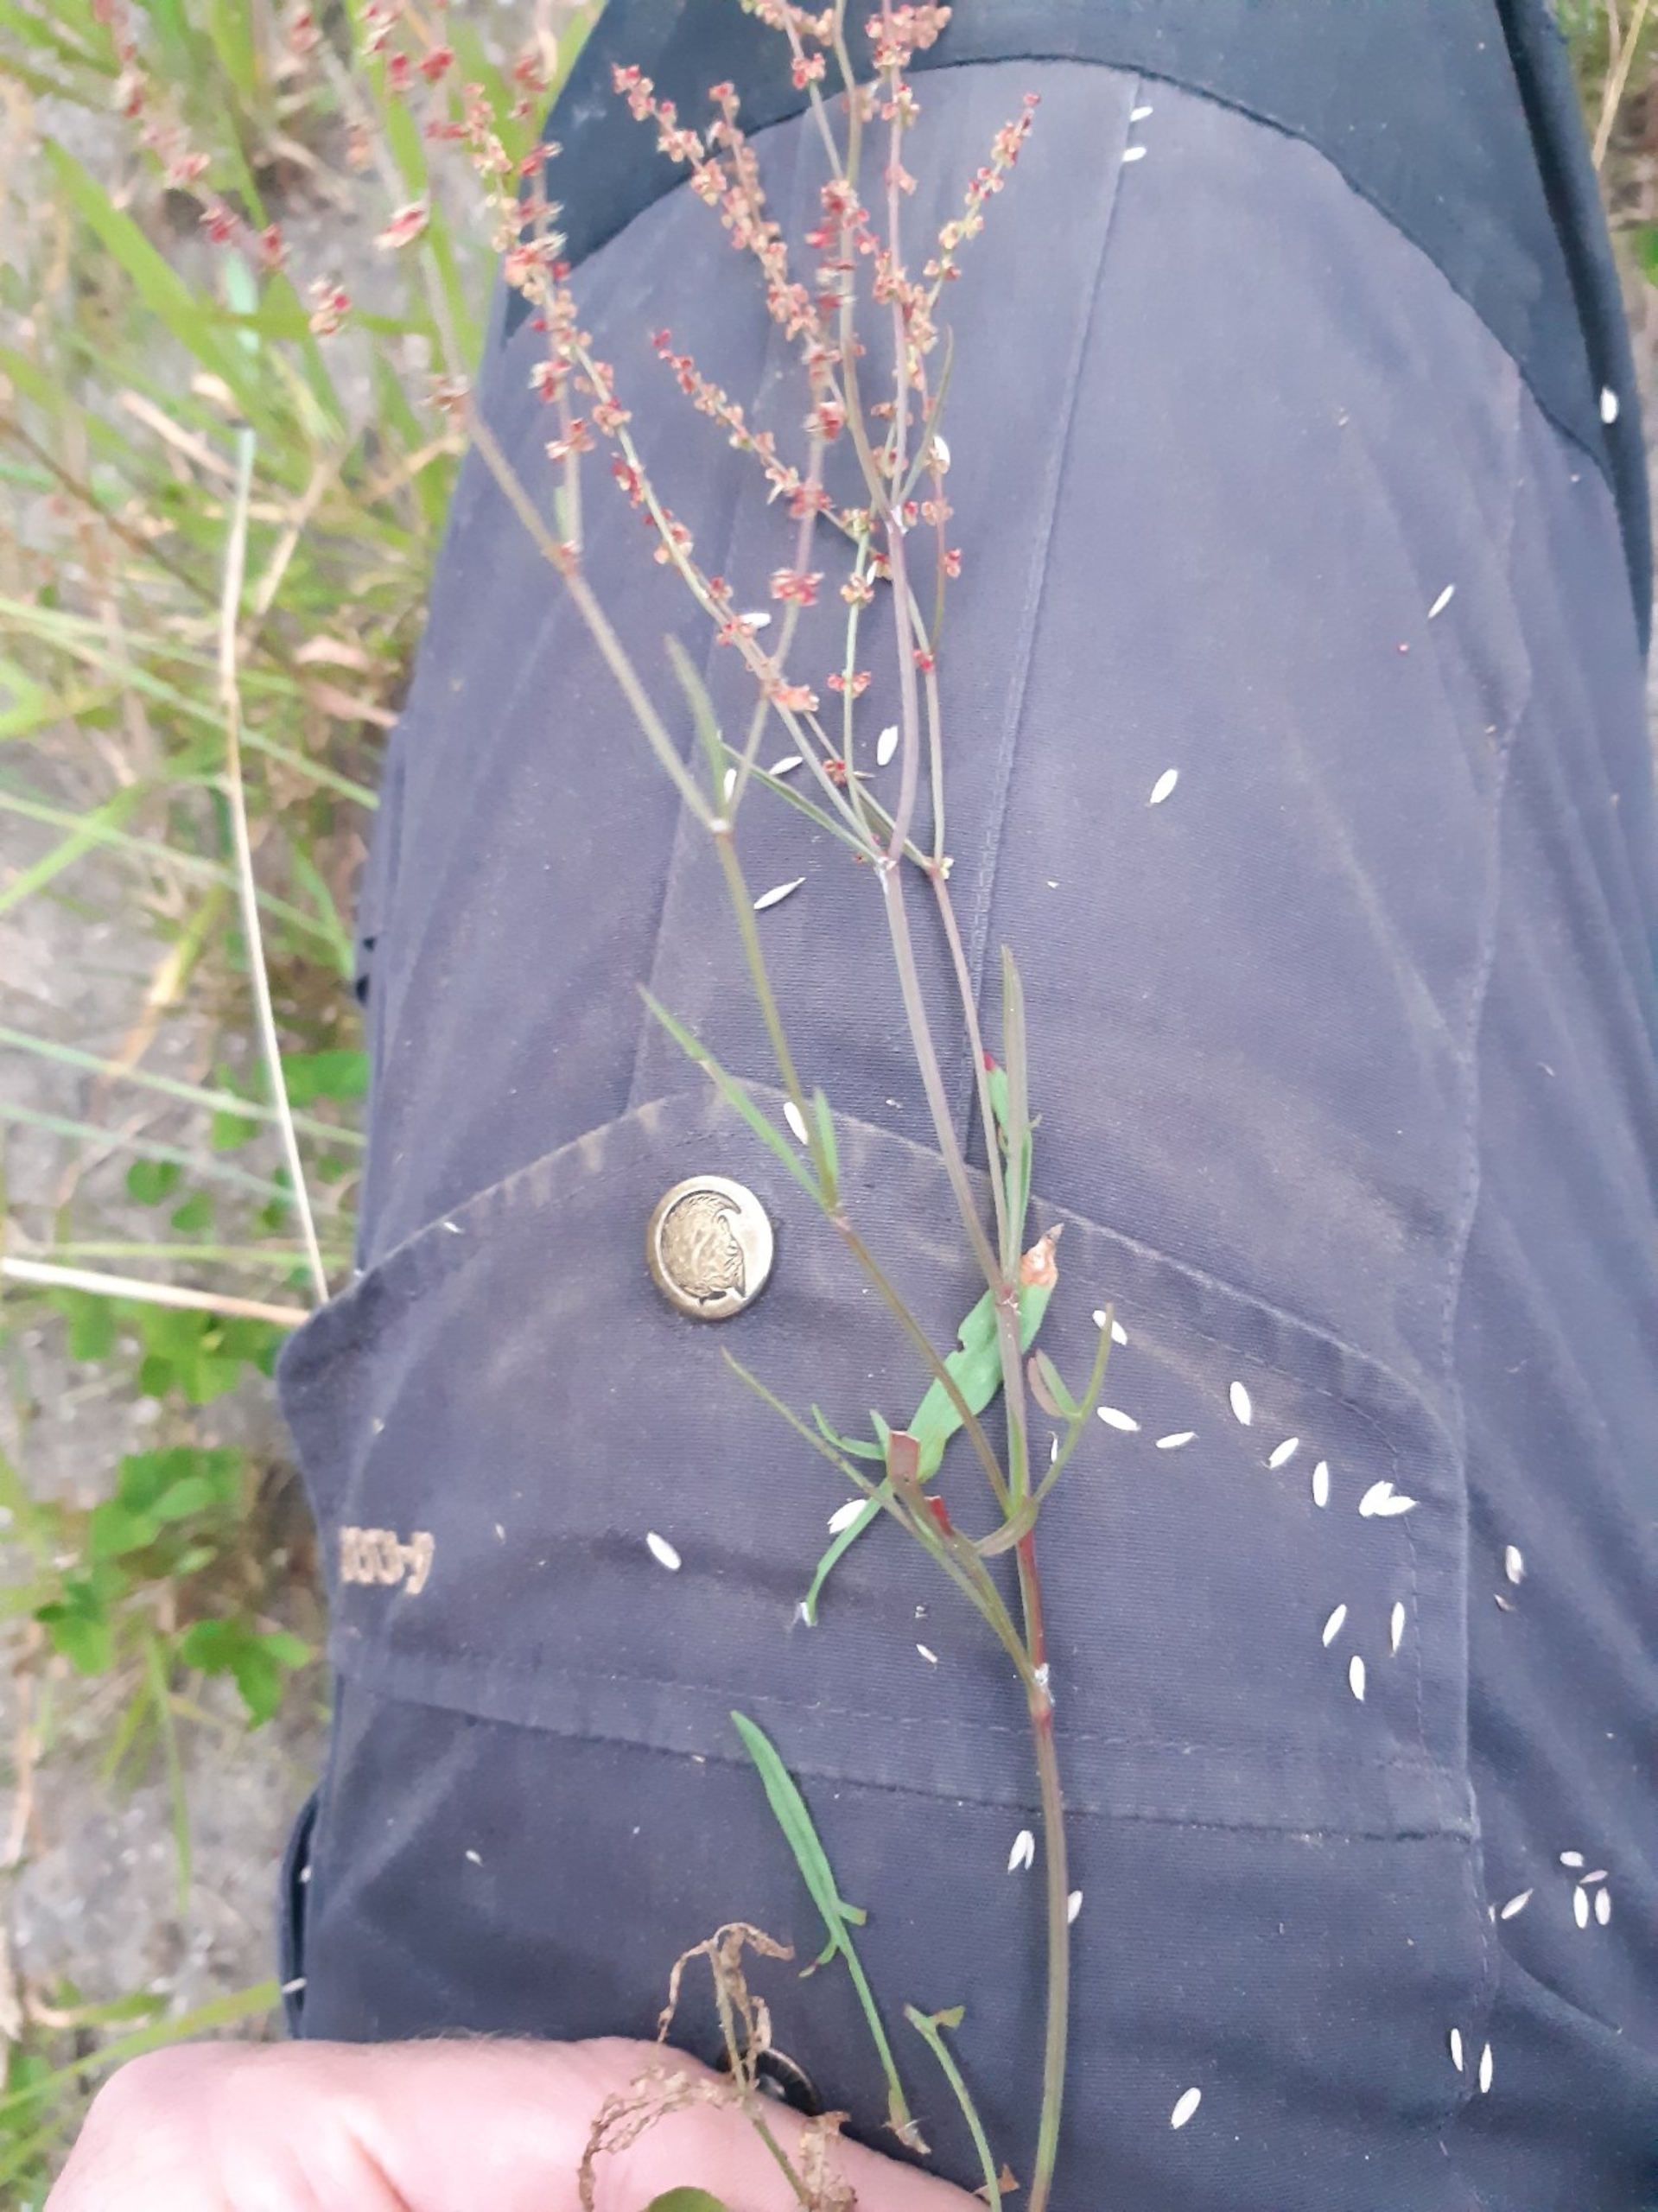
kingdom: Plantae
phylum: Tracheophyta
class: Magnoliopsida
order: Caryophyllales
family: Polygonaceae
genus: Rumex
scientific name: Rumex acetosella
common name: Rødknæ
